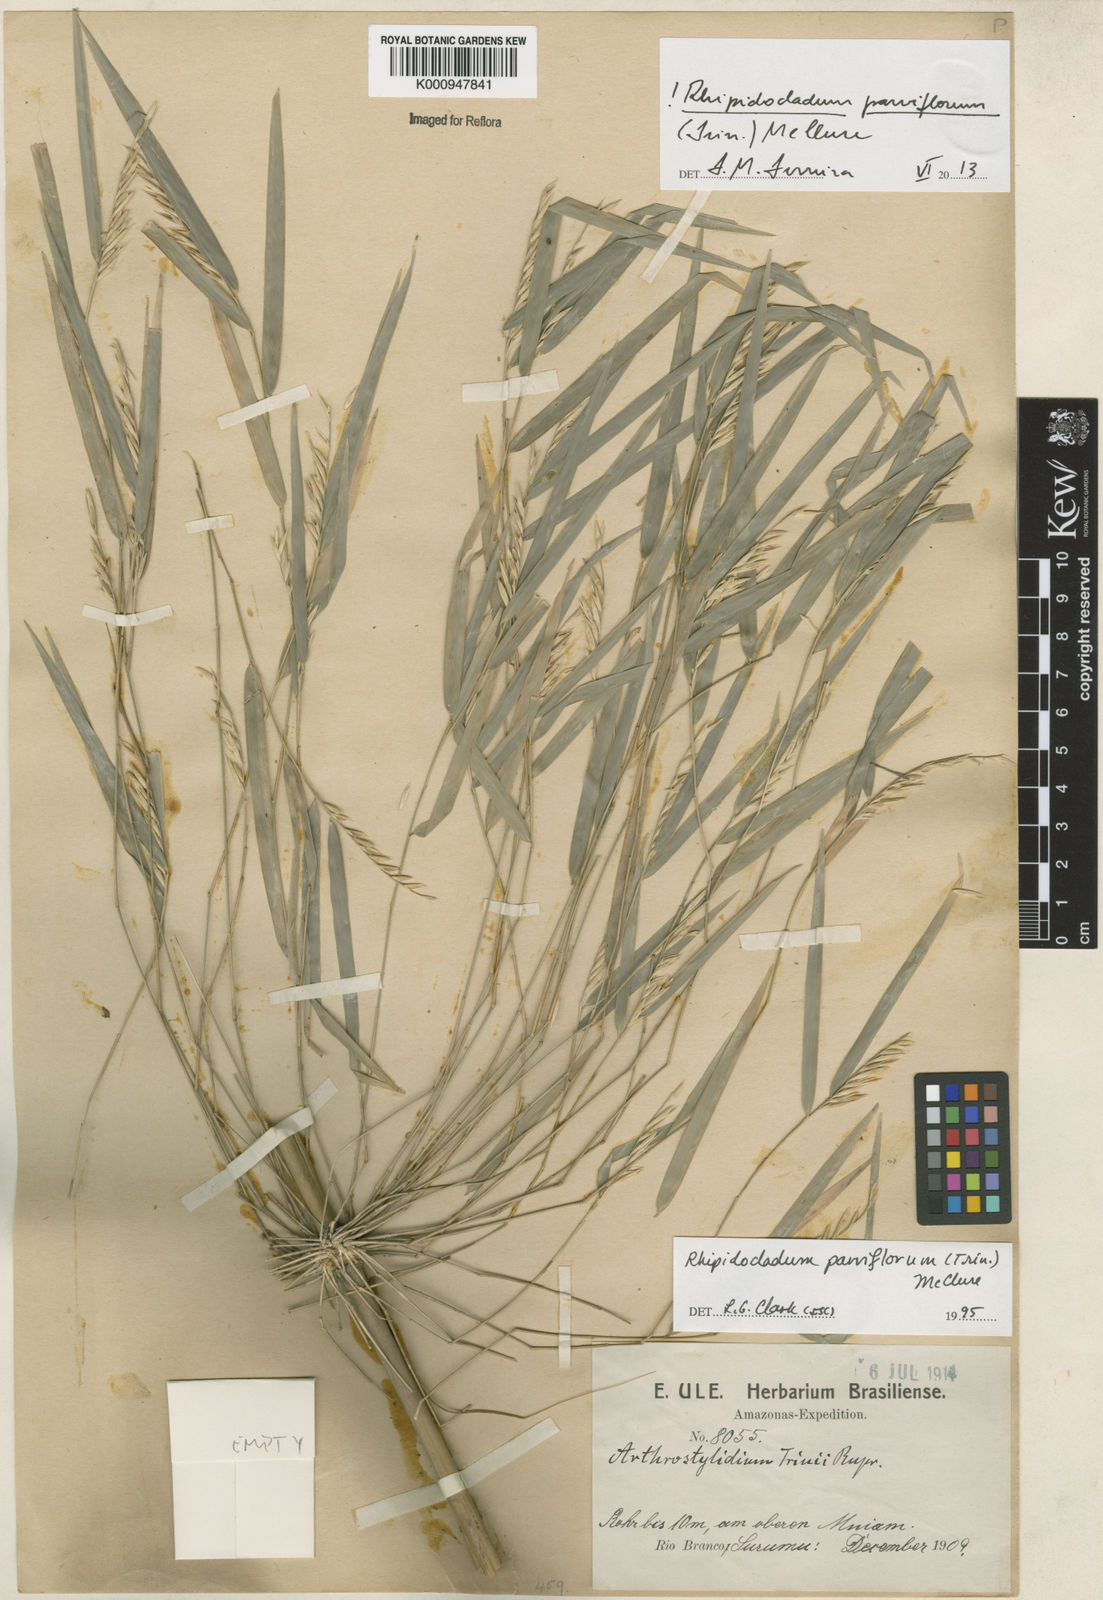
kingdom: Plantae
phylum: Tracheophyta
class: Liliopsida
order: Poales
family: Poaceae
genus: Rhipidocladum
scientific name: Rhipidocladum parviflorum
